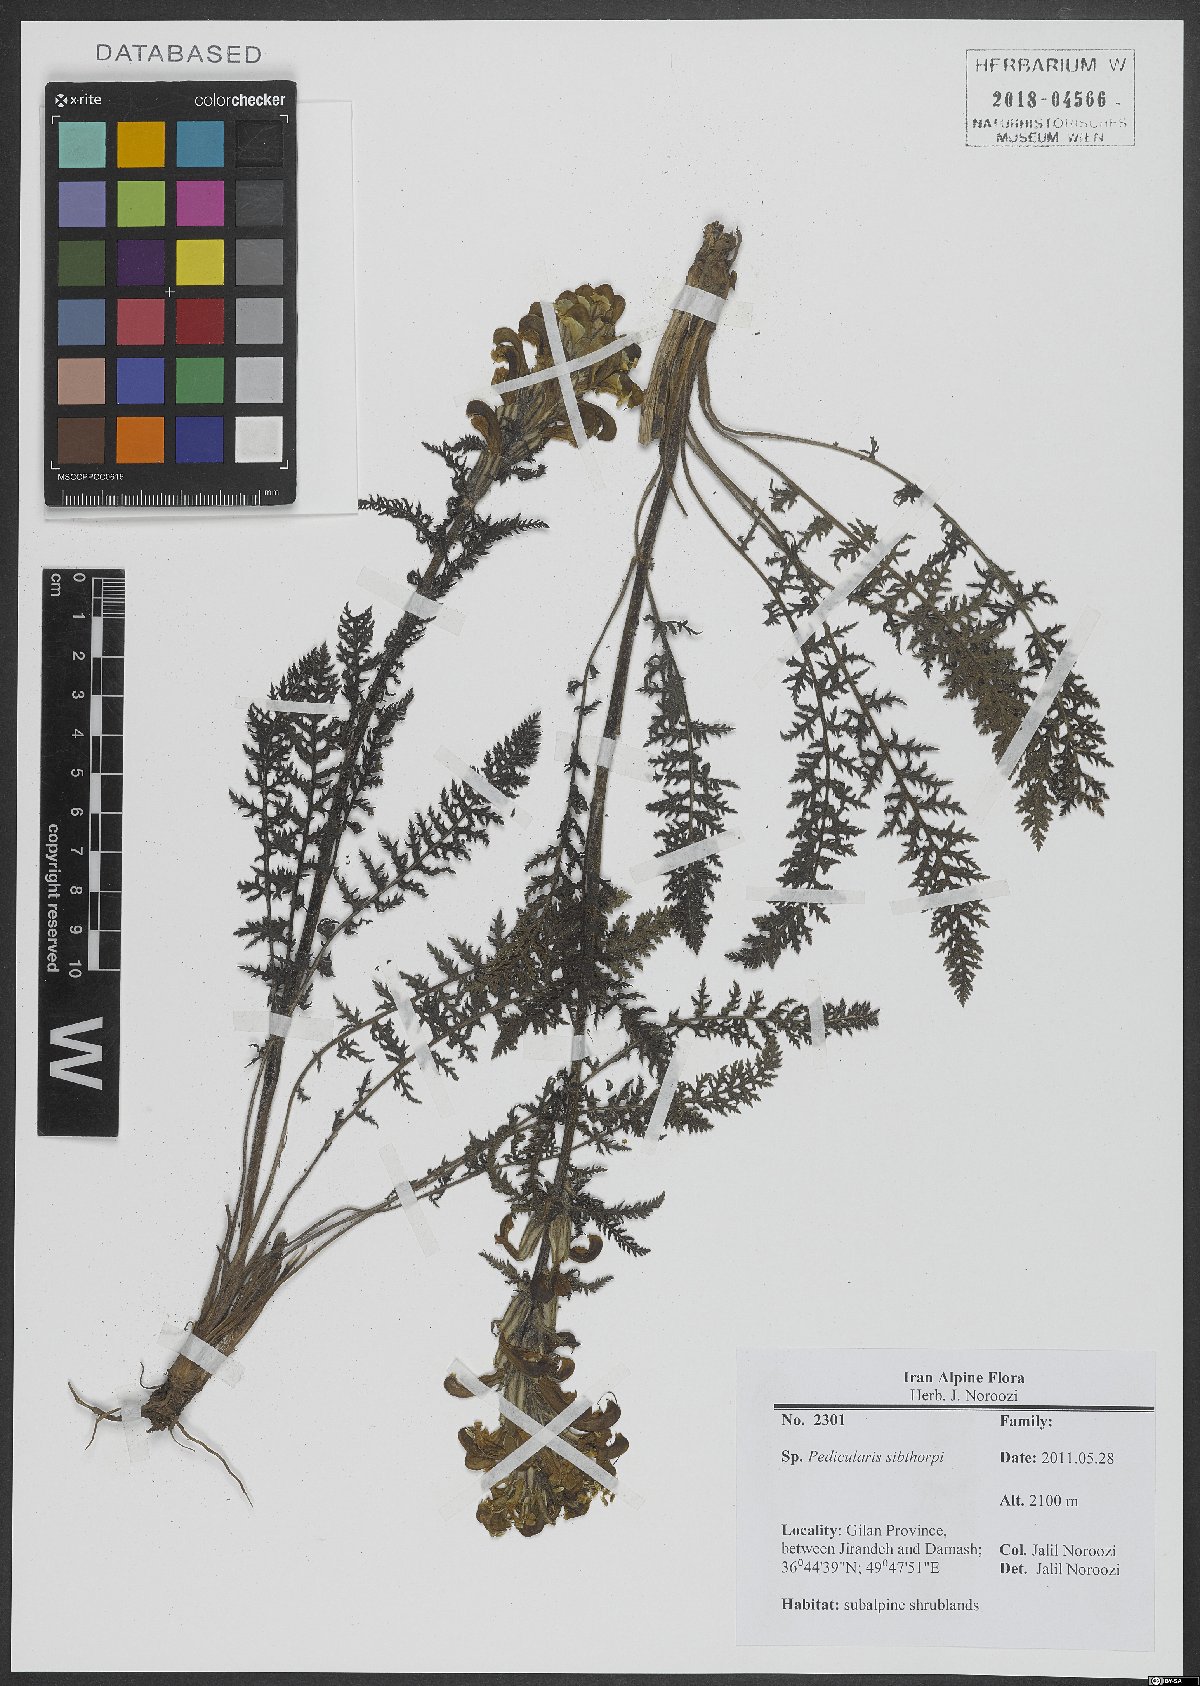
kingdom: Plantae
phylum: Tracheophyta
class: Magnoliopsida
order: Lamiales
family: Orobanchaceae
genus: Pedicularis
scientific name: Pedicularis sibthorpii
